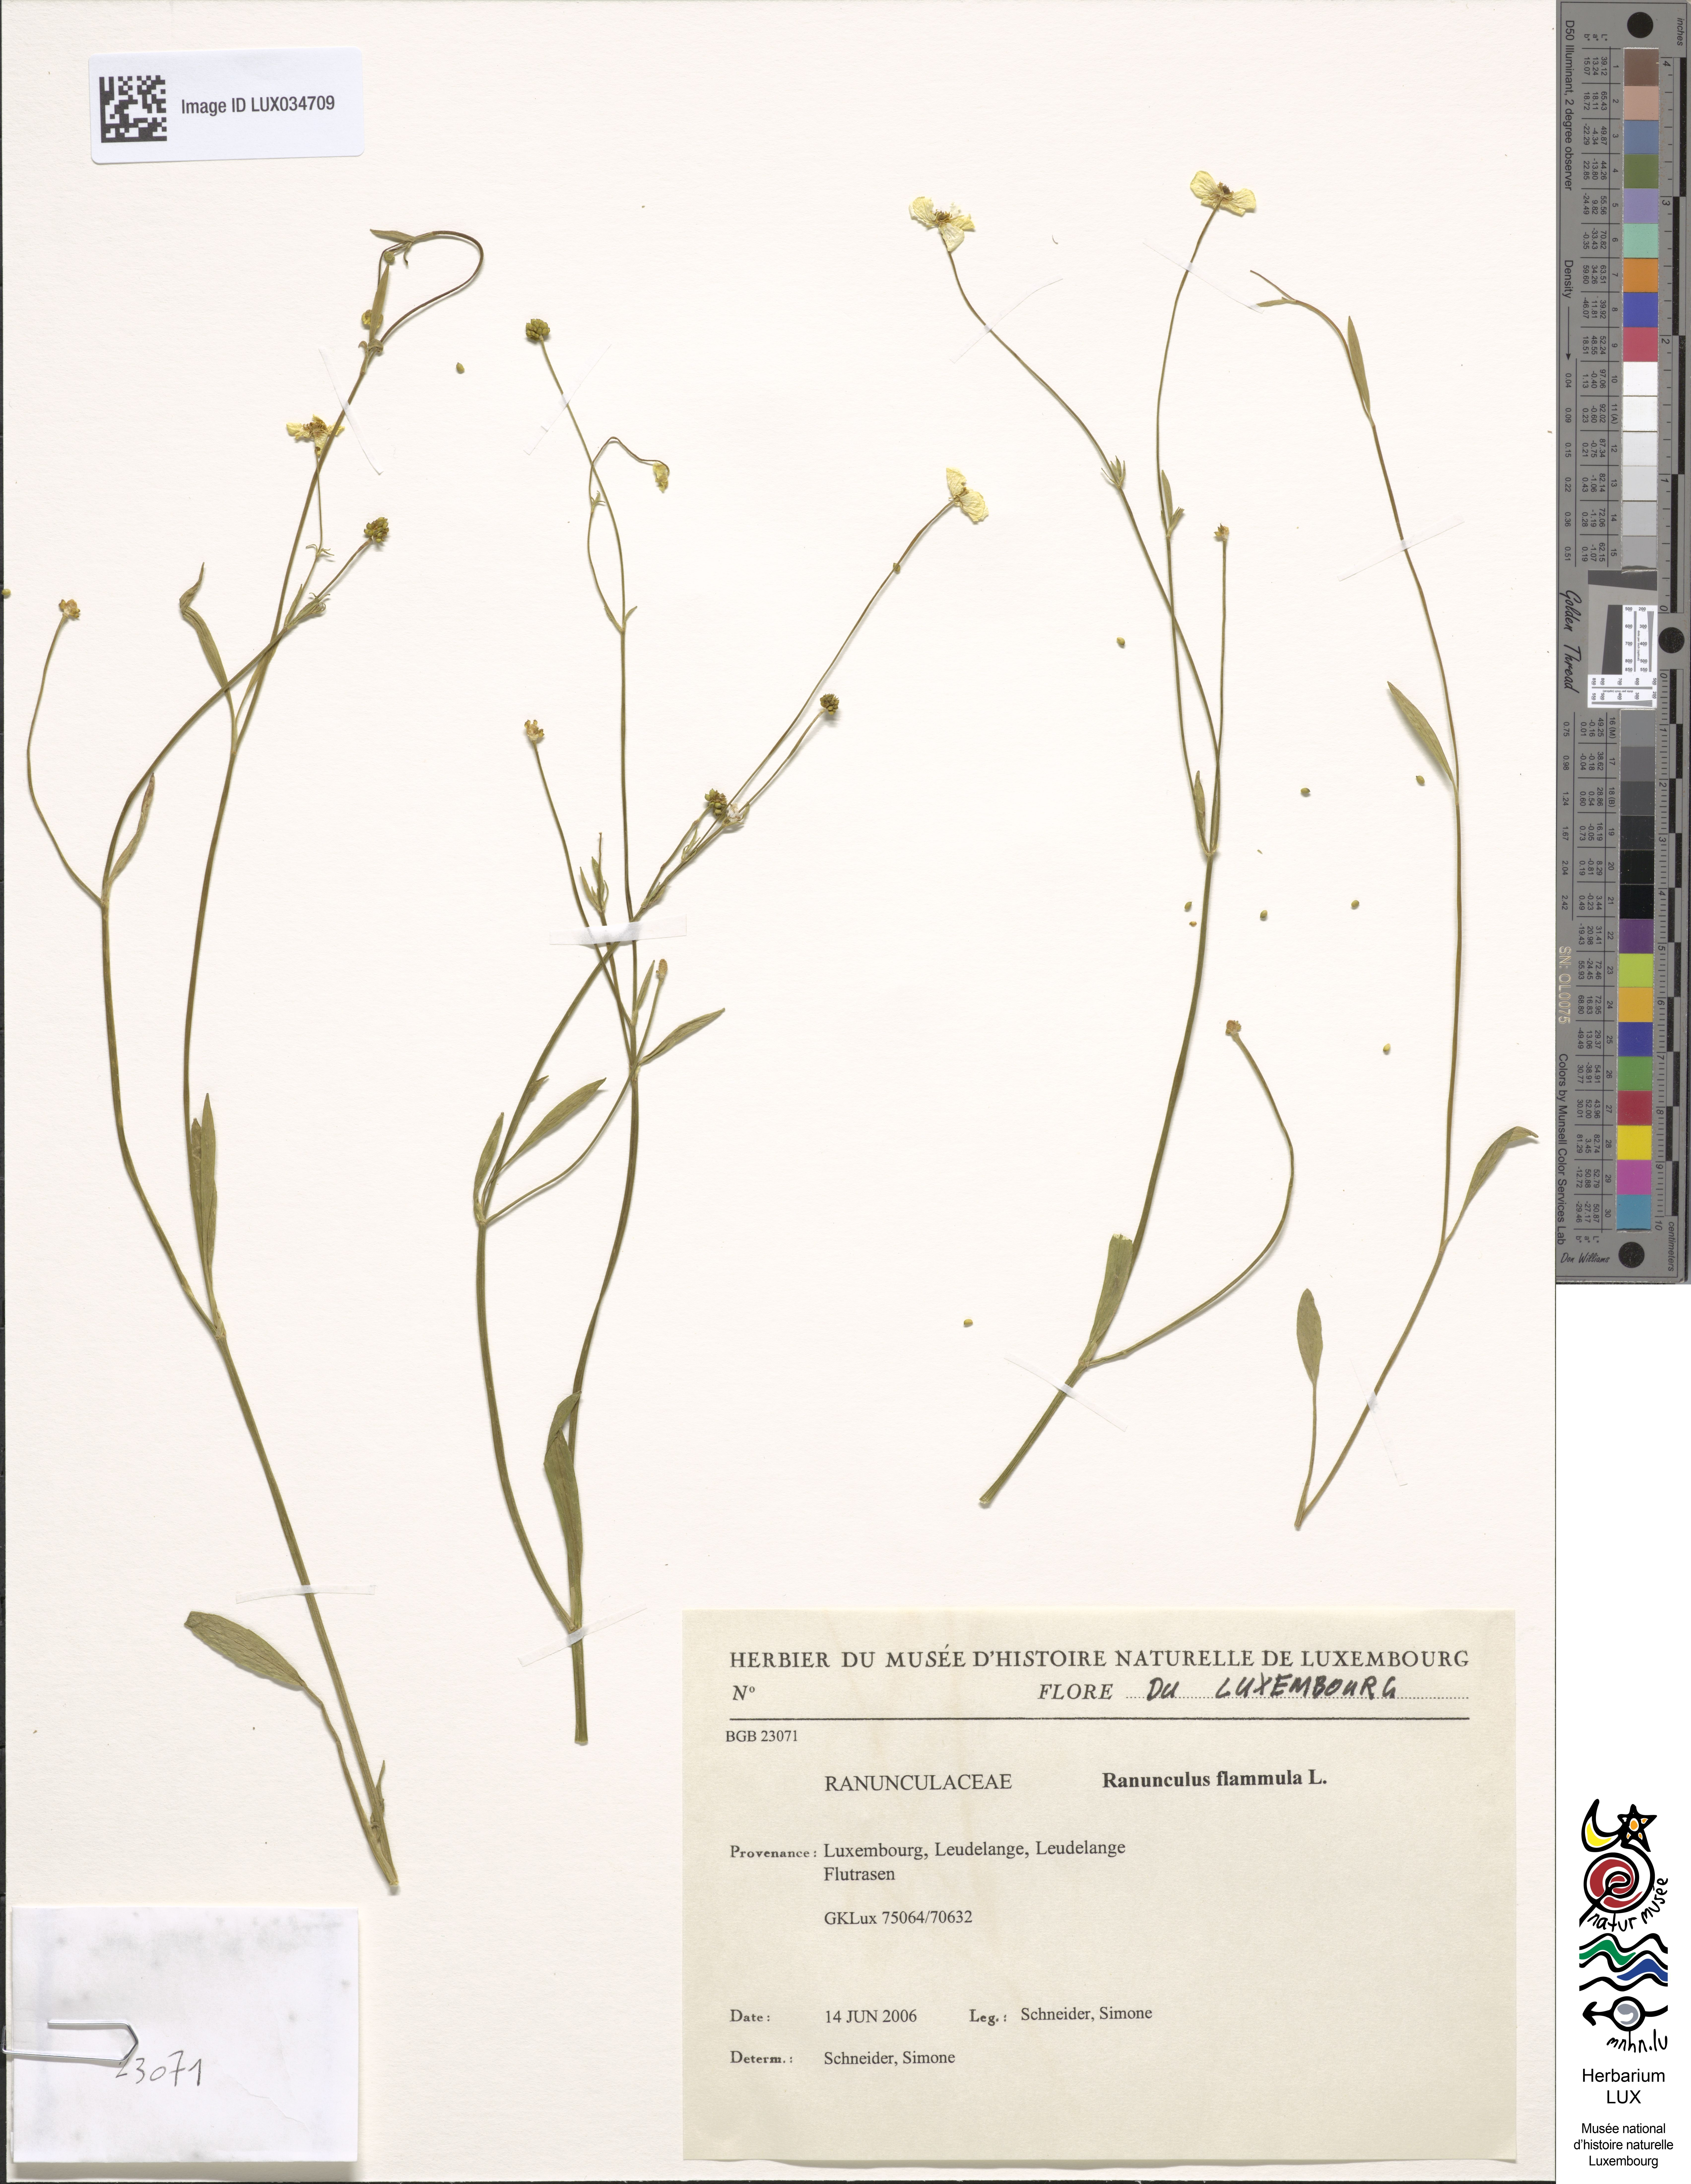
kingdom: Plantae
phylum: Tracheophyta
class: Magnoliopsida
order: Ranunculales
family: Ranunculaceae
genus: Ranunculus
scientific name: Ranunculus flammula
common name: Lesser spearwort
